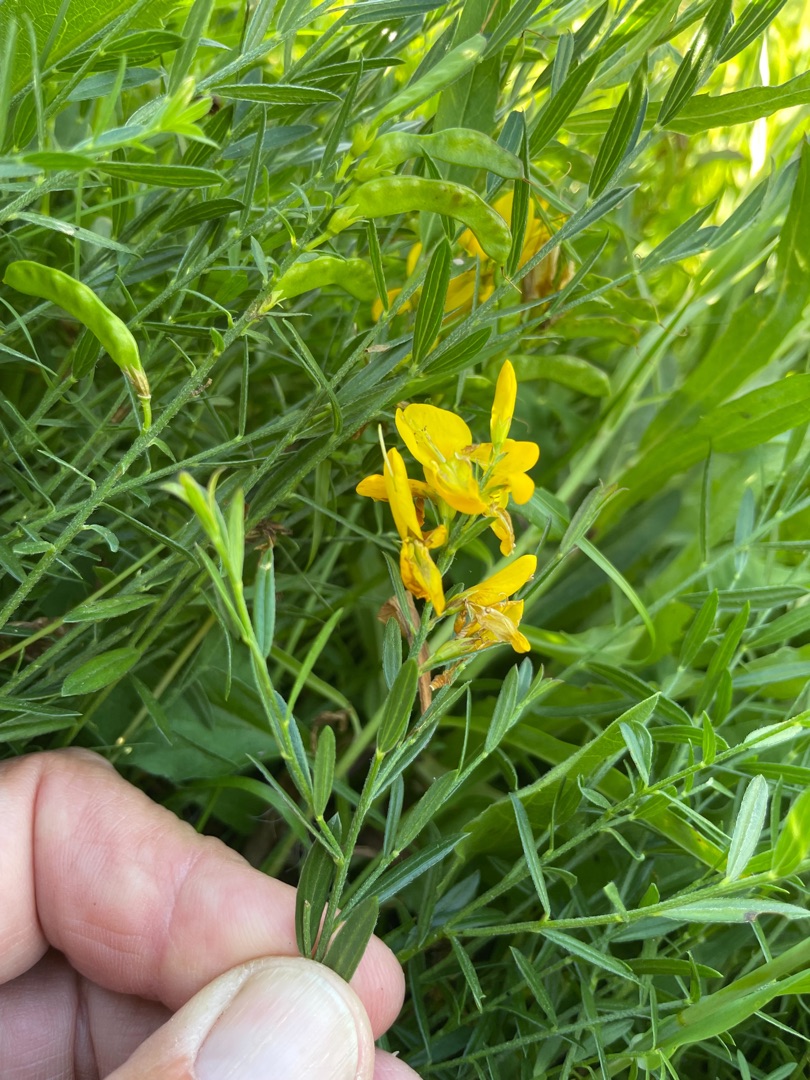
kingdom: Plantae
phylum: Tracheophyta
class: Magnoliopsida
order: Fabales
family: Fabaceae
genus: Genista
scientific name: Genista tinctoria
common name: Farve-visse
